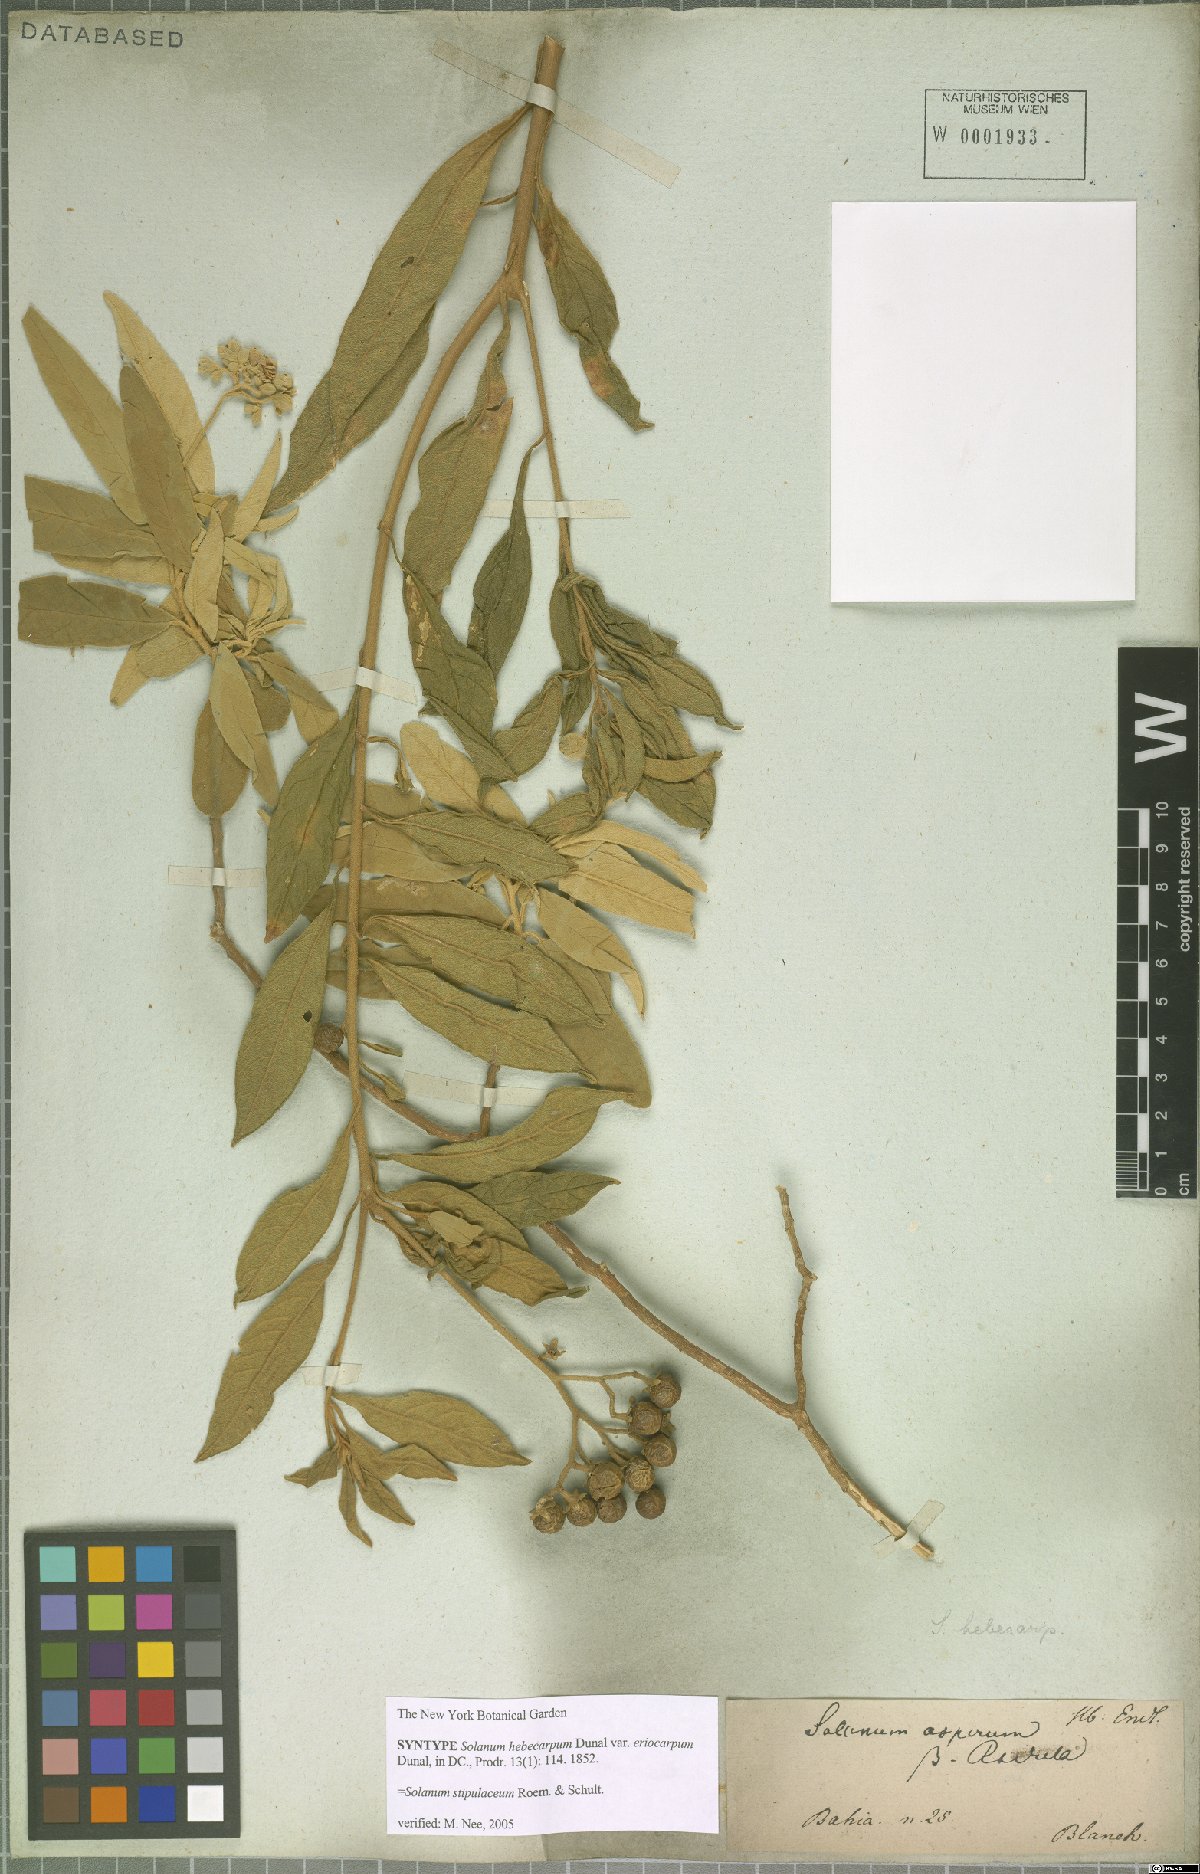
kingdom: Plantae
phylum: Tracheophyta
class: Magnoliopsida
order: Solanales
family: Solanaceae
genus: Solanum
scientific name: Solanum stipulaceum
